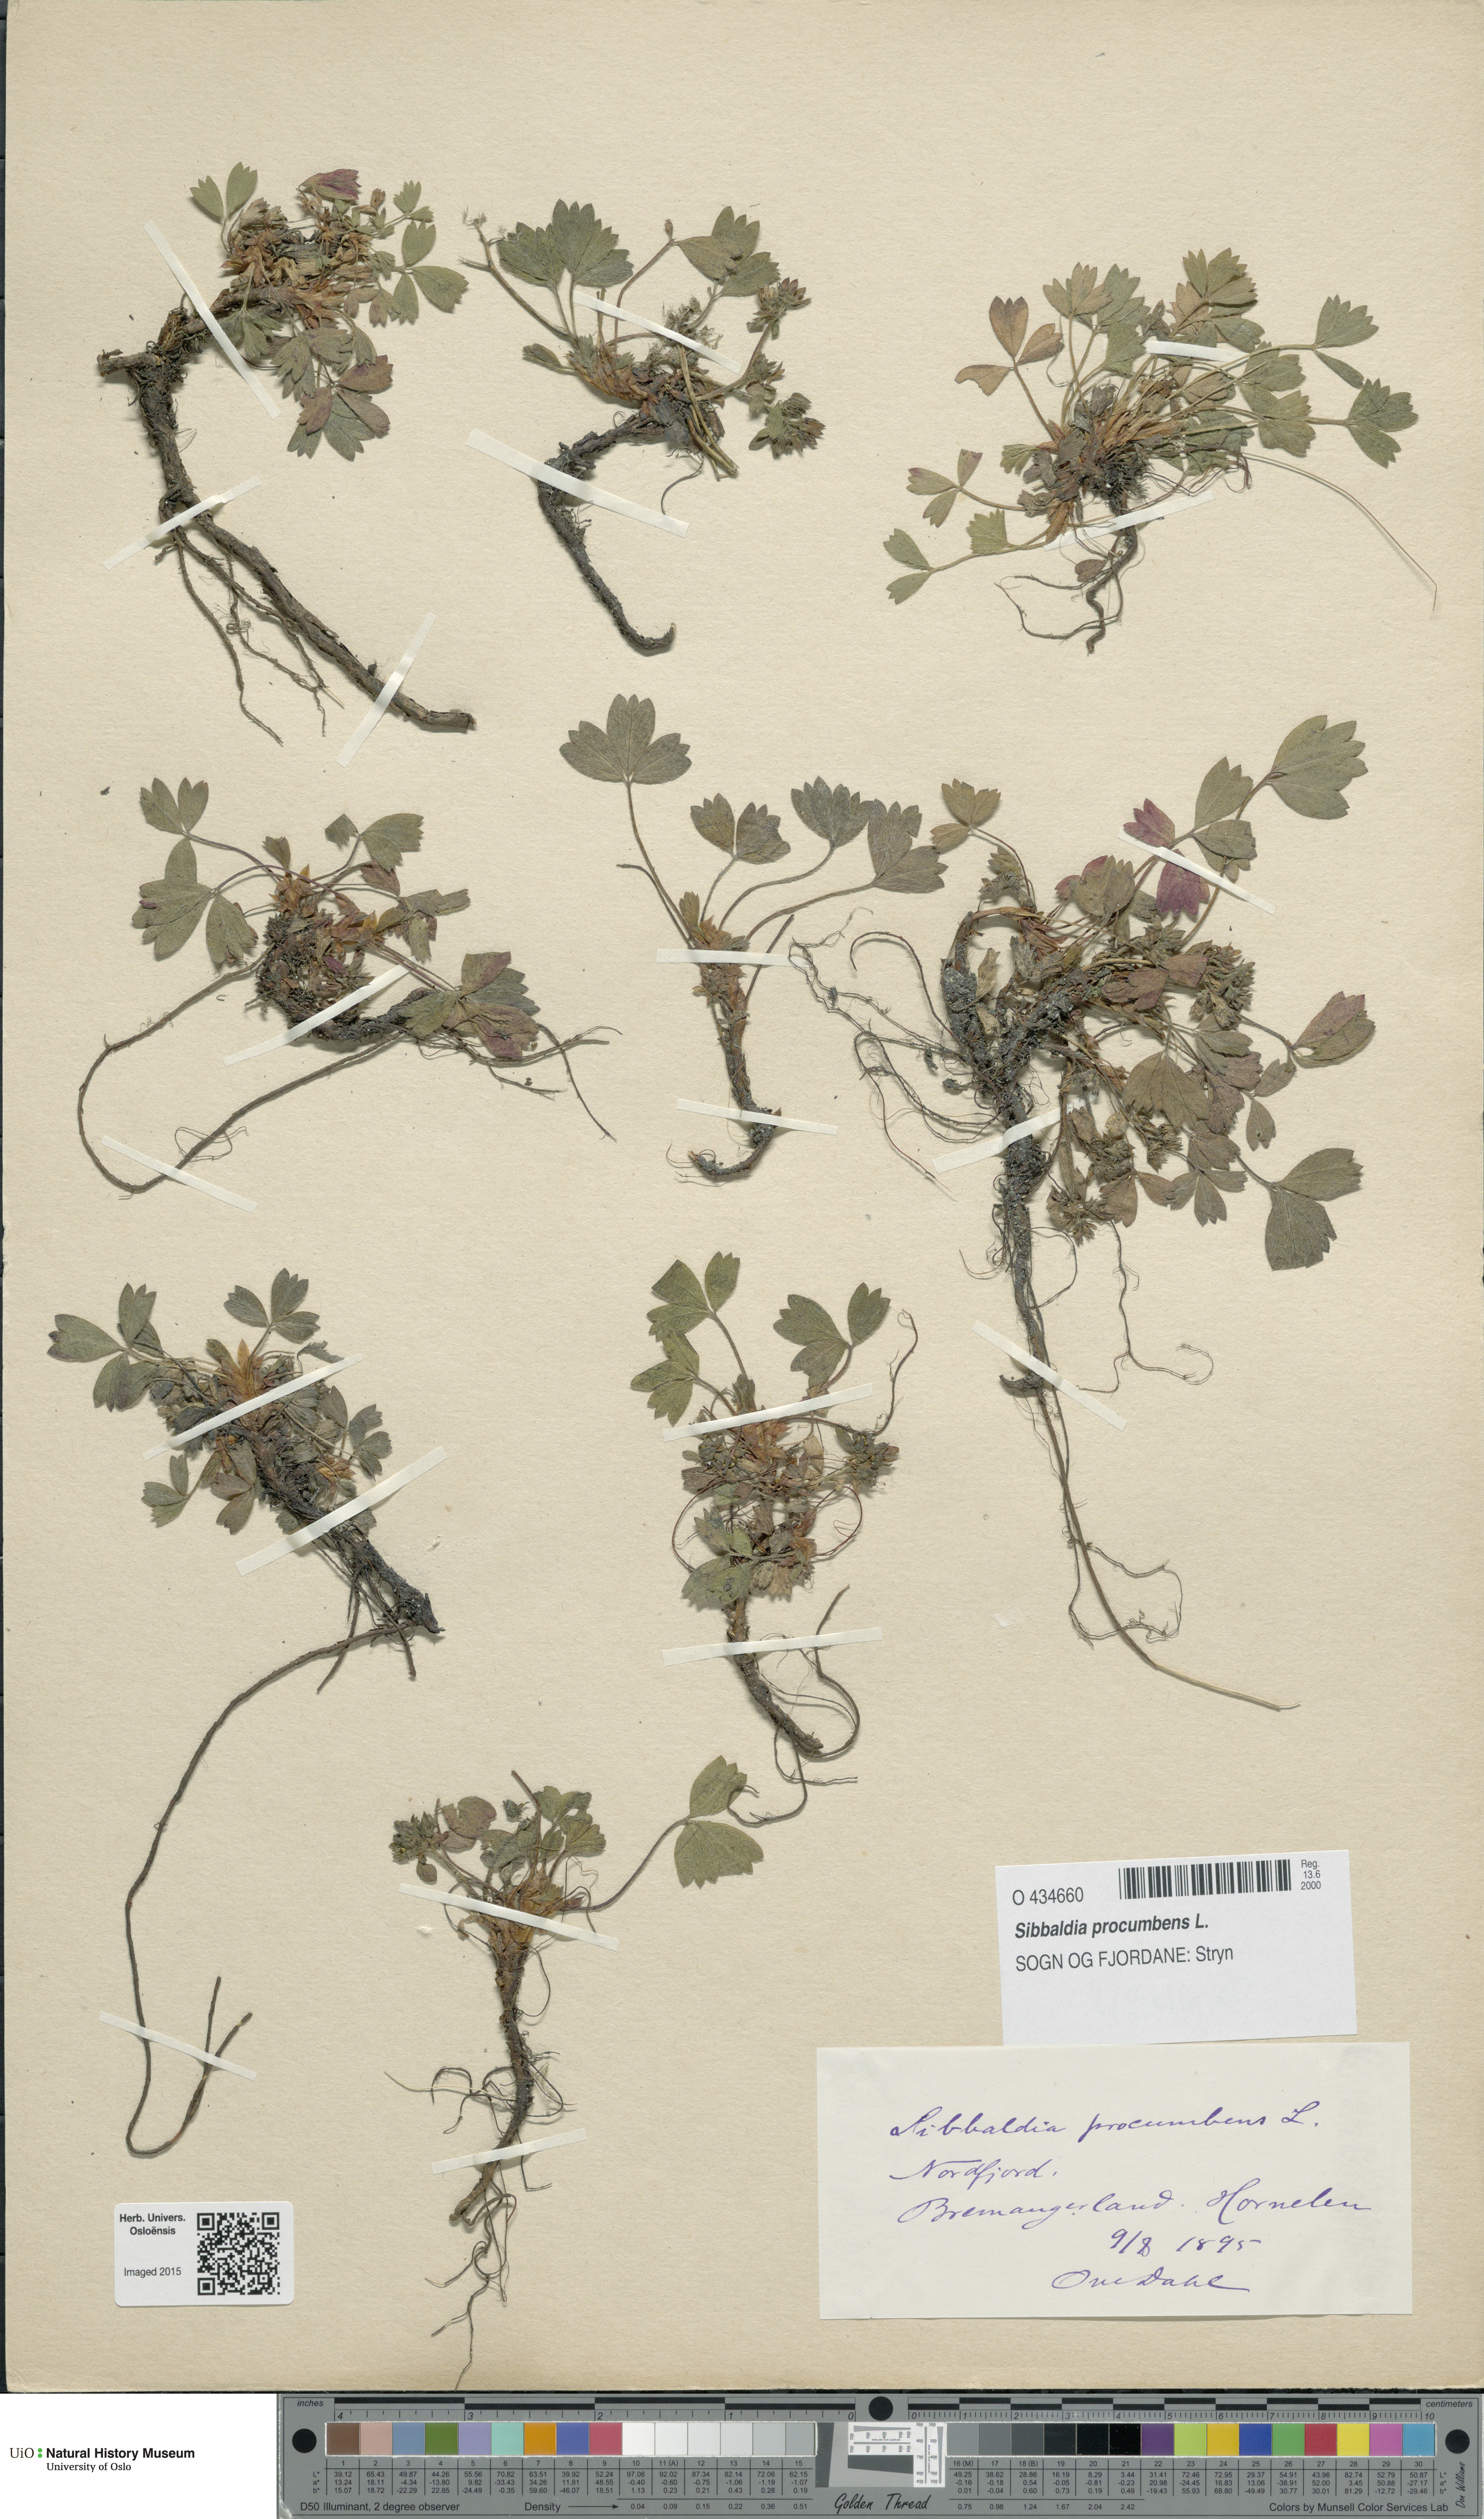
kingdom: Plantae
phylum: Tracheophyta
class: Magnoliopsida
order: Rosales
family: Rosaceae
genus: Sibbaldia
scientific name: Sibbaldia procumbens
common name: Creeping sibbaldia
